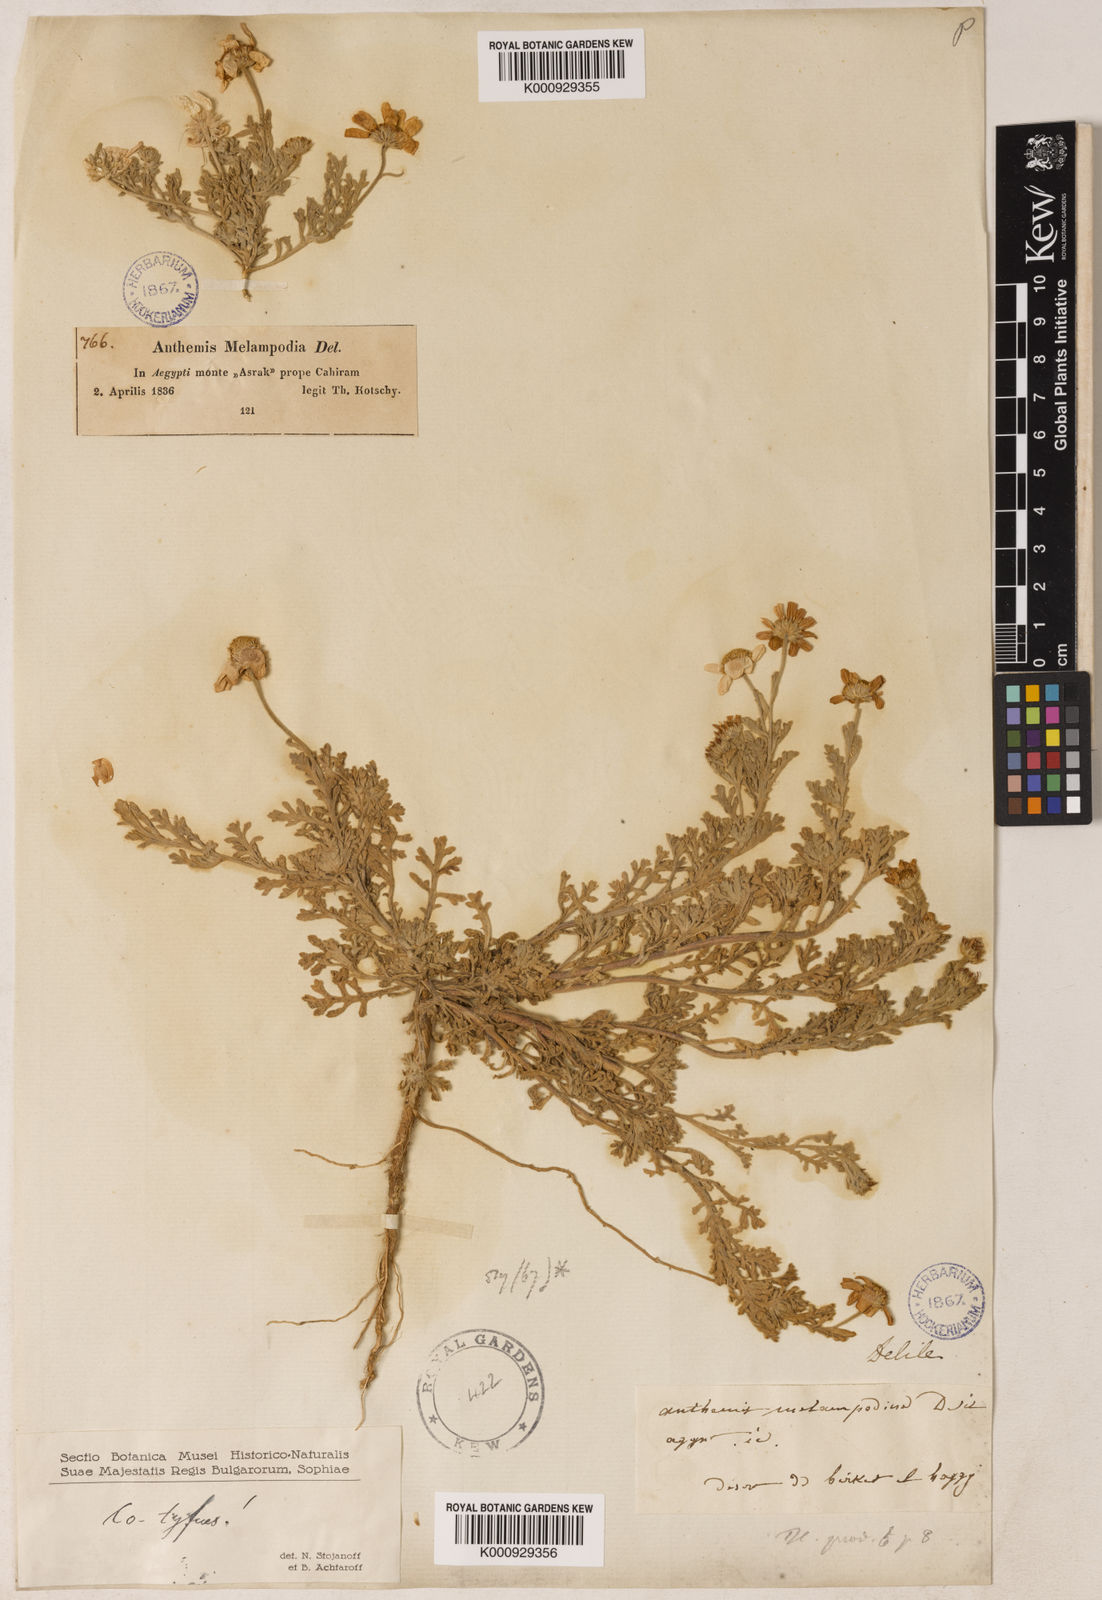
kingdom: Plantae
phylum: Tracheophyta
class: Magnoliopsida
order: Asterales
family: Asteraceae
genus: Anthemis
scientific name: Anthemis melampodina
